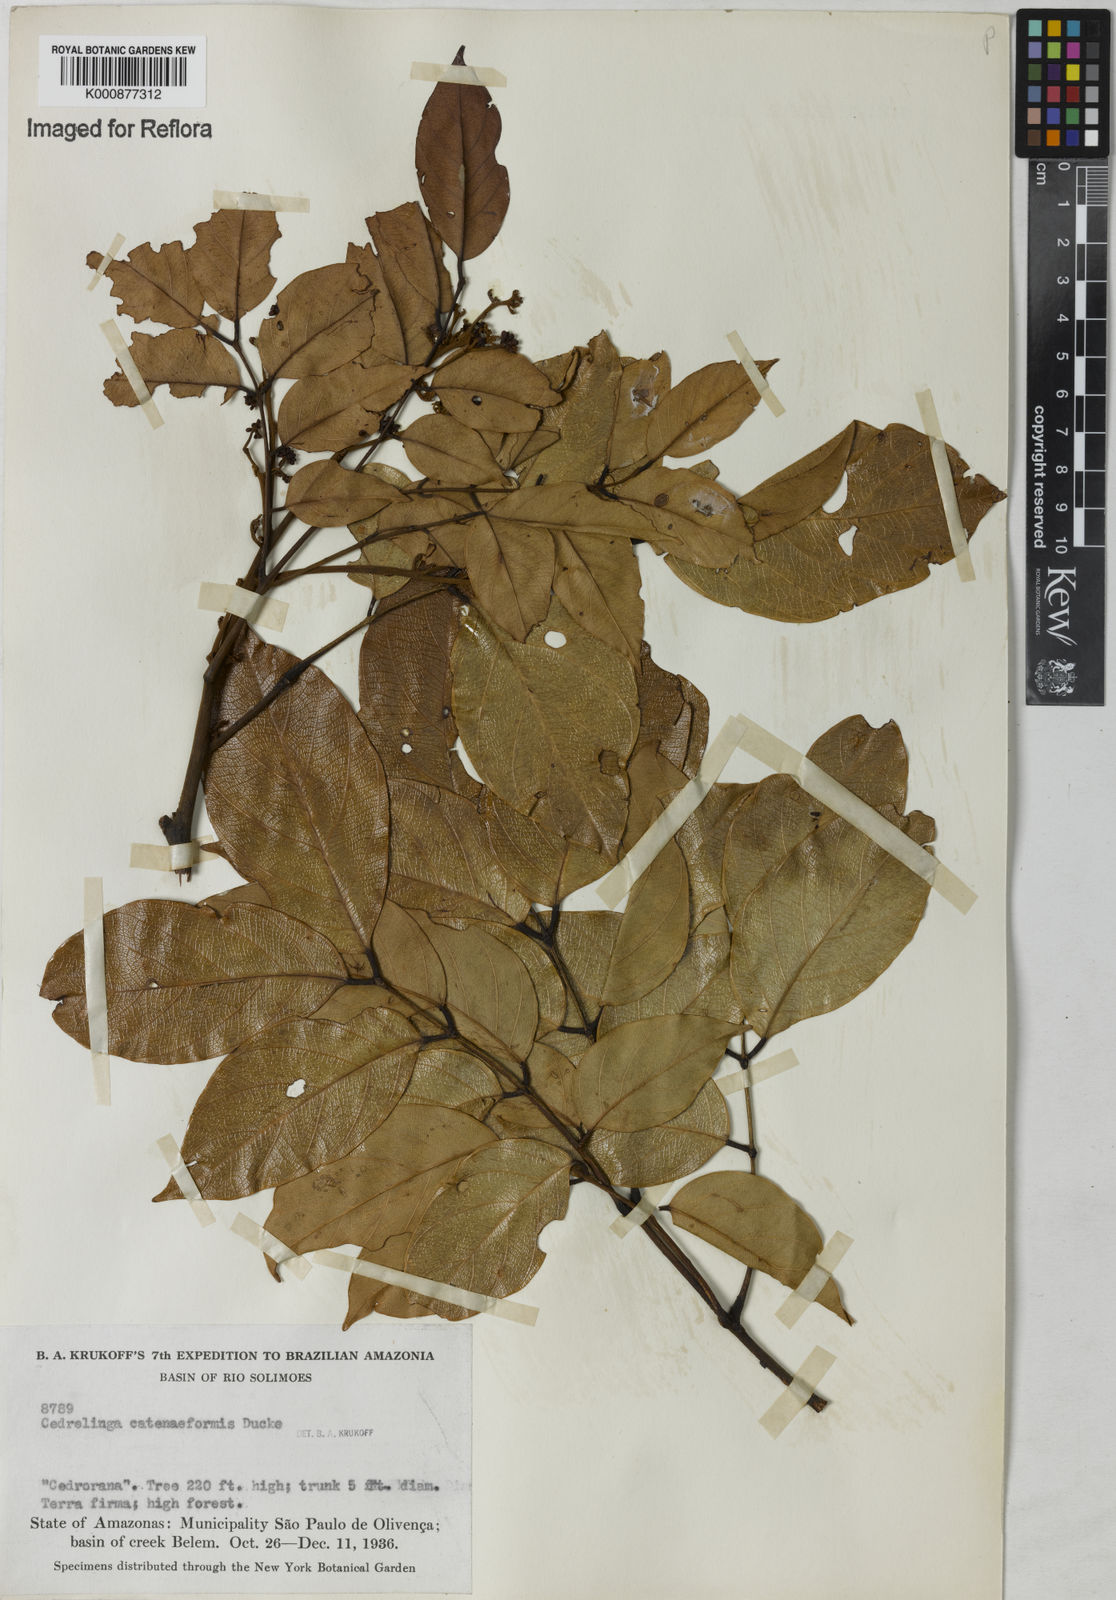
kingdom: Plantae
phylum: Tracheophyta
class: Magnoliopsida
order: Fabales
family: Fabaceae
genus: Cedrelinga
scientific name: Cedrelinga cateniformis
